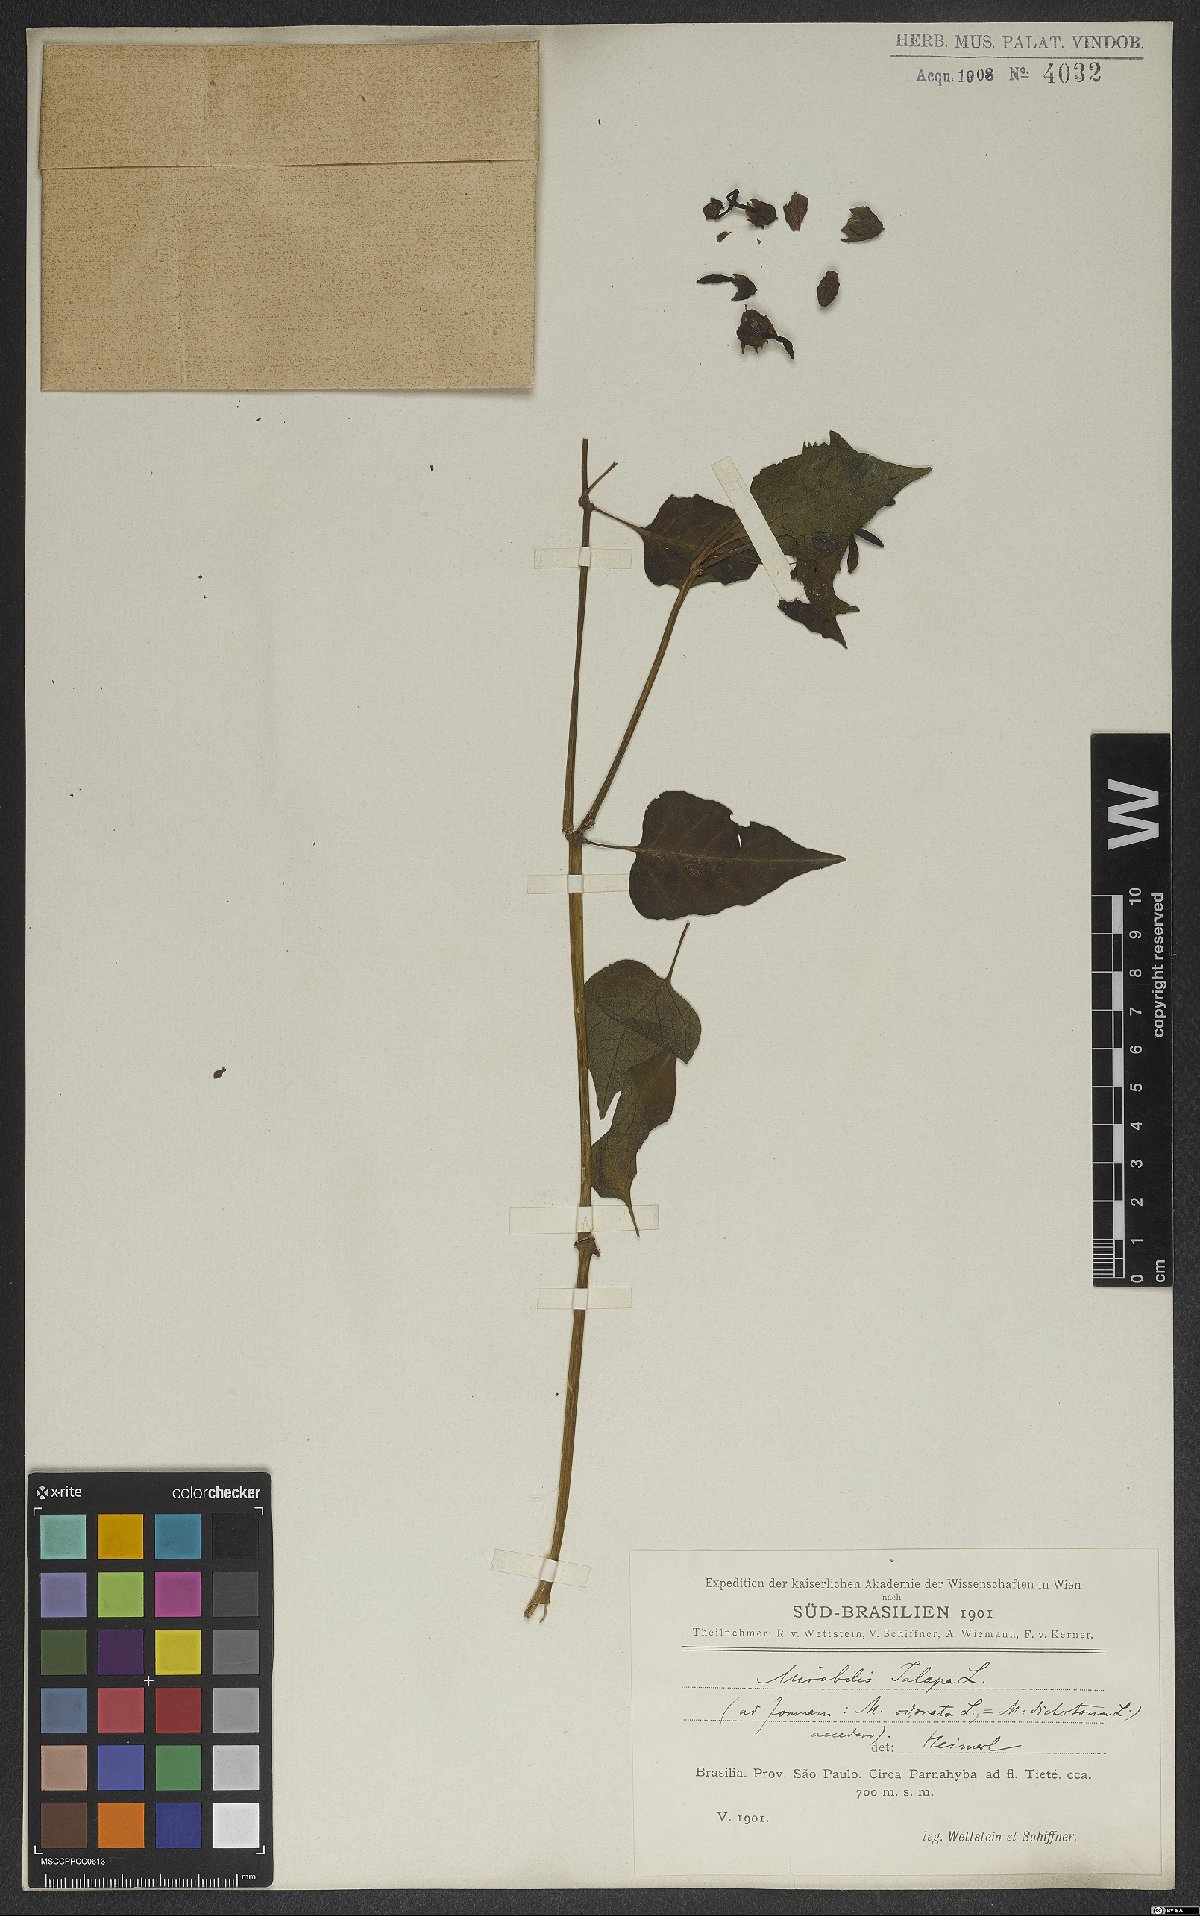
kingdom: Plantae
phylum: Tracheophyta
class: Magnoliopsida
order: Caryophyllales
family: Nyctaginaceae
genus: Mirabilis
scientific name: Mirabilis jalapa
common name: Marvel-of-peru
